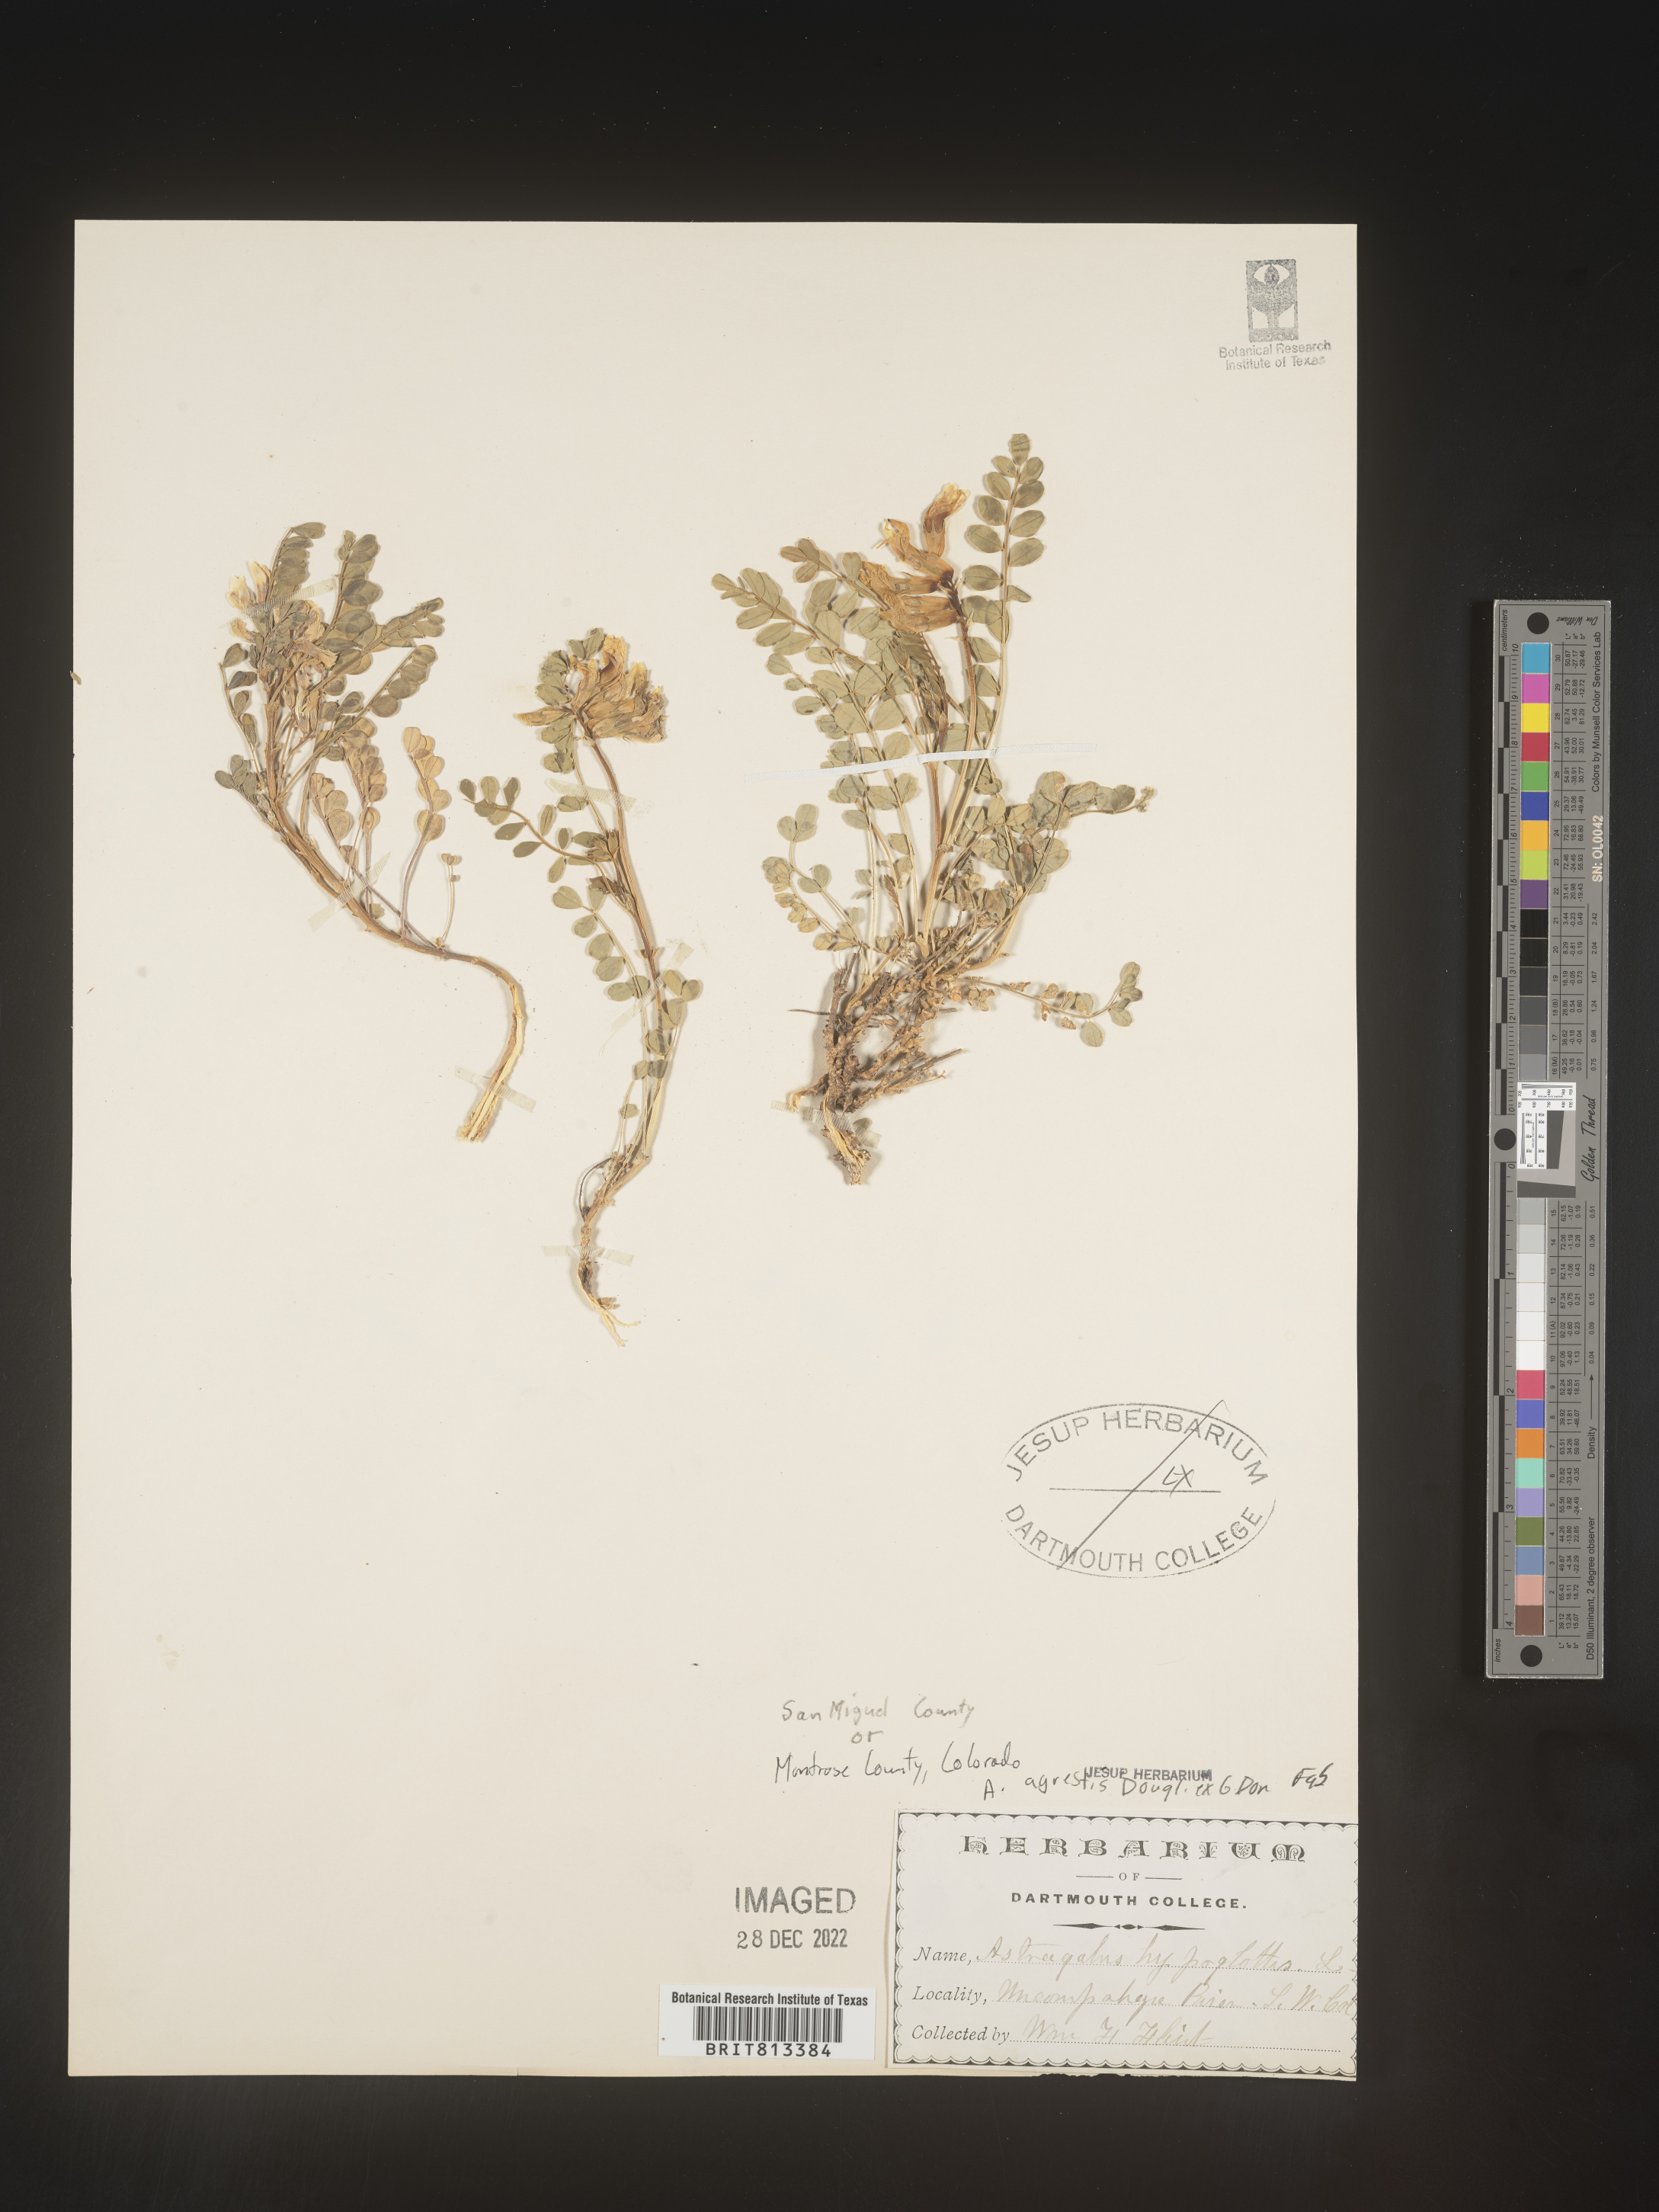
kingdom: Plantae
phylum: Tracheophyta
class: Magnoliopsida
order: Fabales
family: Fabaceae
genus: Astragalus
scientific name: Astragalus agrestis
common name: Field milk-vetch
